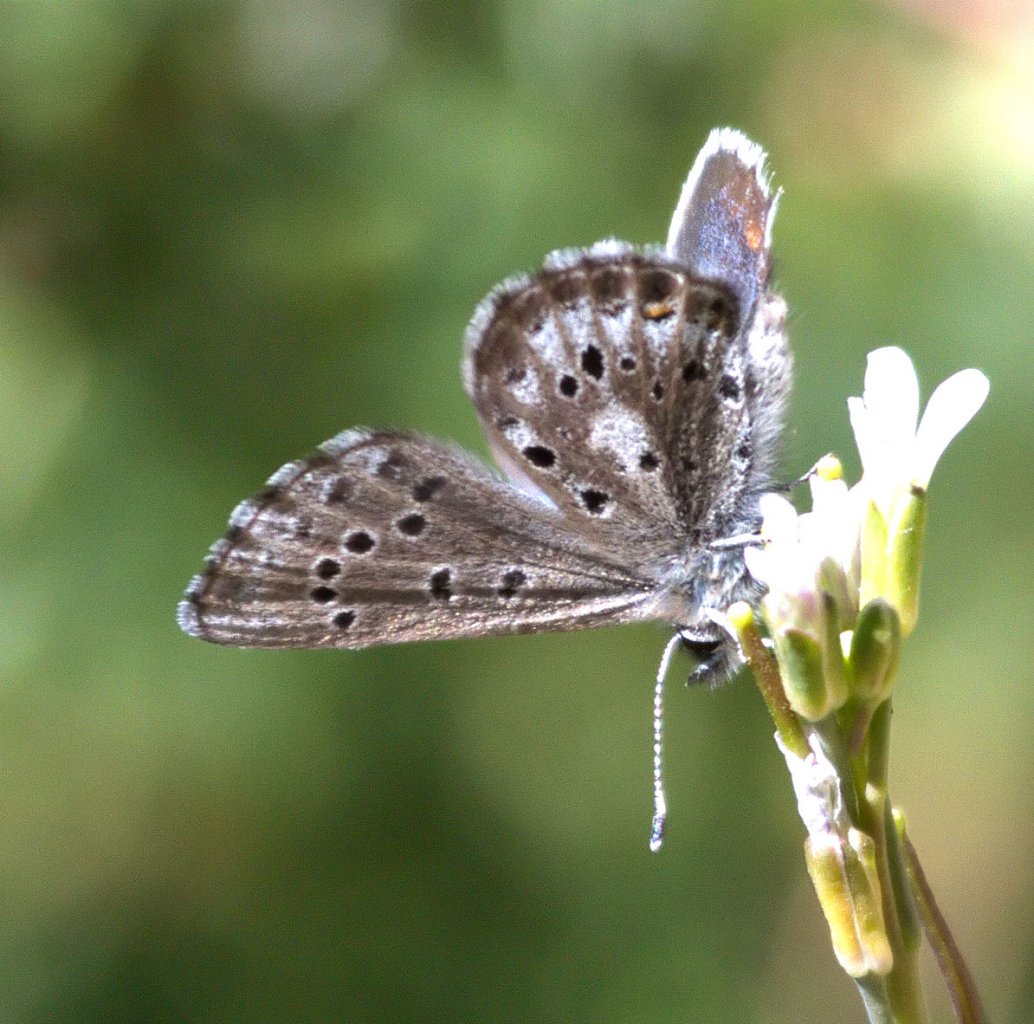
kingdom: Animalia
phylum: Arthropoda
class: Insecta
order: Lepidoptera
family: Lycaenidae
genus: Glaucopsyche
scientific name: Glaucopsyche piasus
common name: Arrowhead Blue
